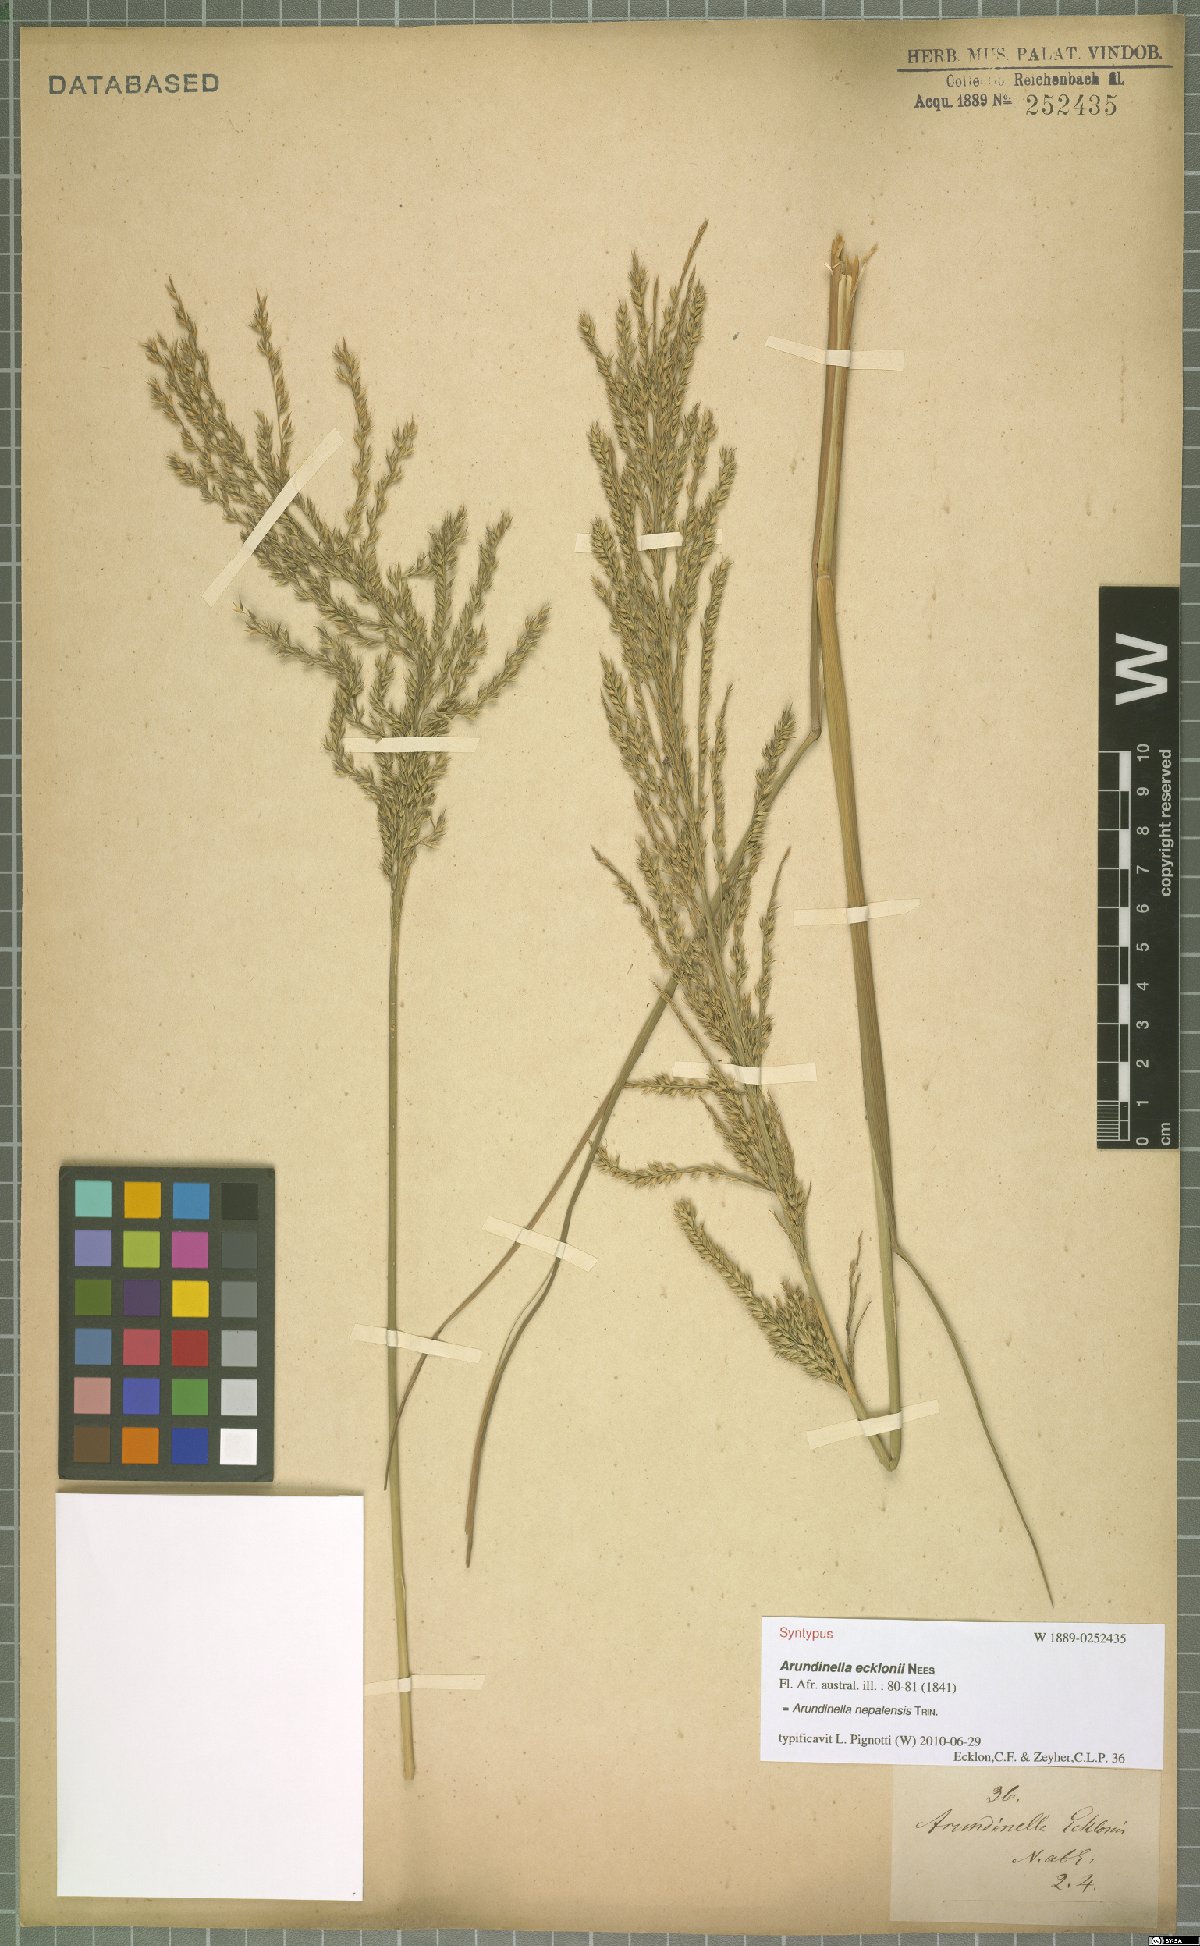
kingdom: Plantae
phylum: Tracheophyta
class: Liliopsida
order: Poales
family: Poaceae
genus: Arundinella
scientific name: Arundinella nepalensis
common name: Reed grass
